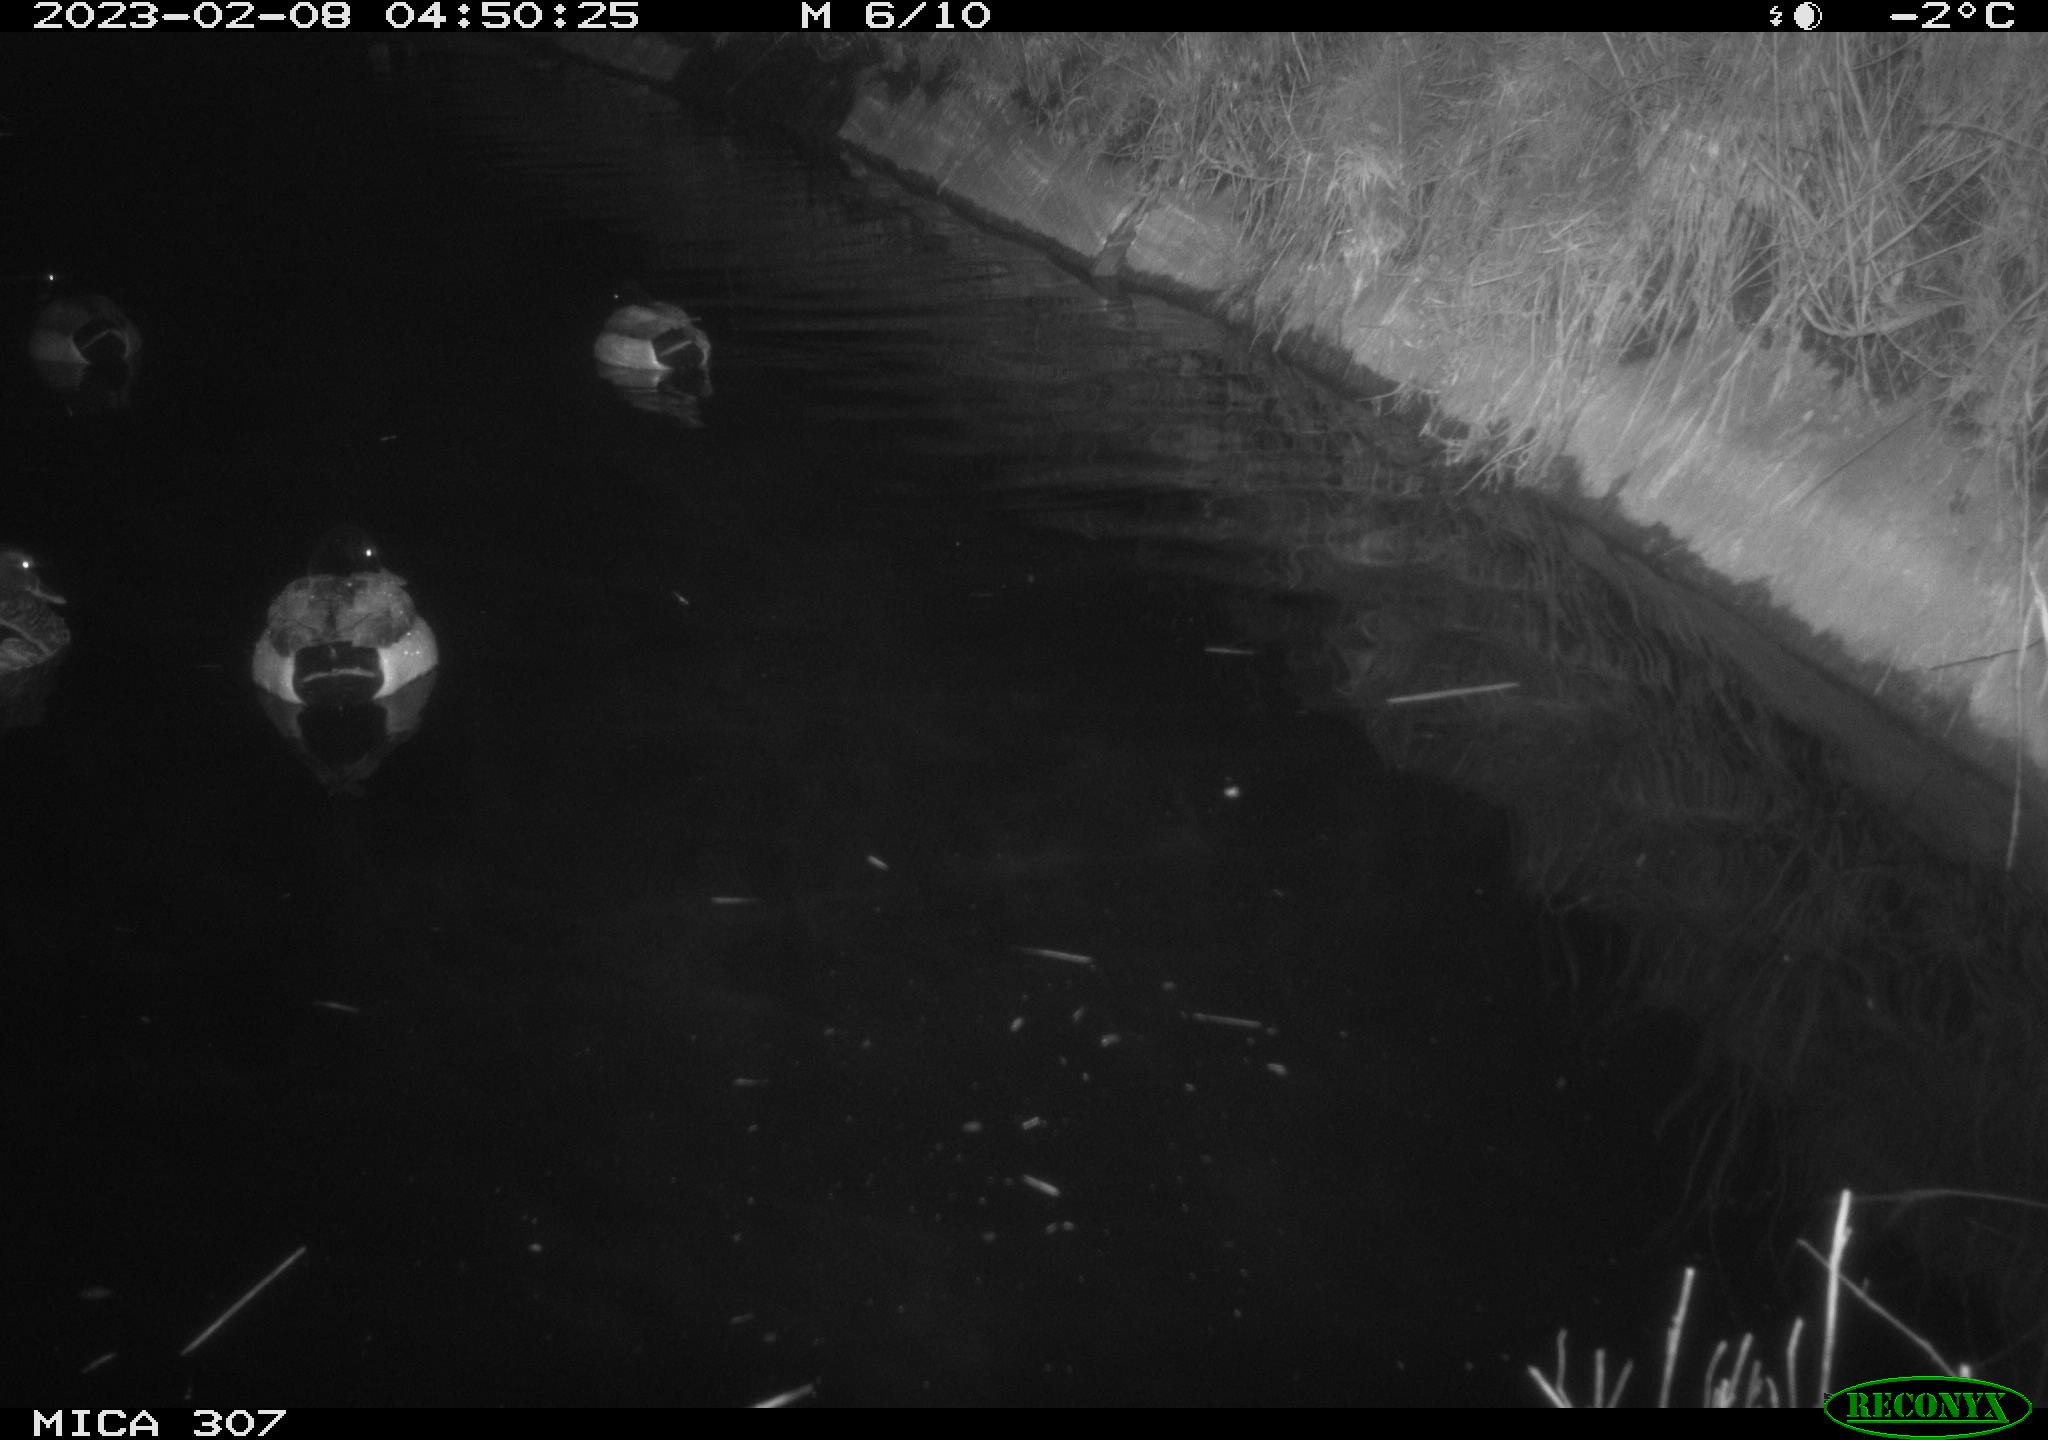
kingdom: Animalia
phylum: Chordata
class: Aves
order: Anseriformes
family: Anatidae
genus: Anas
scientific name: Anas
